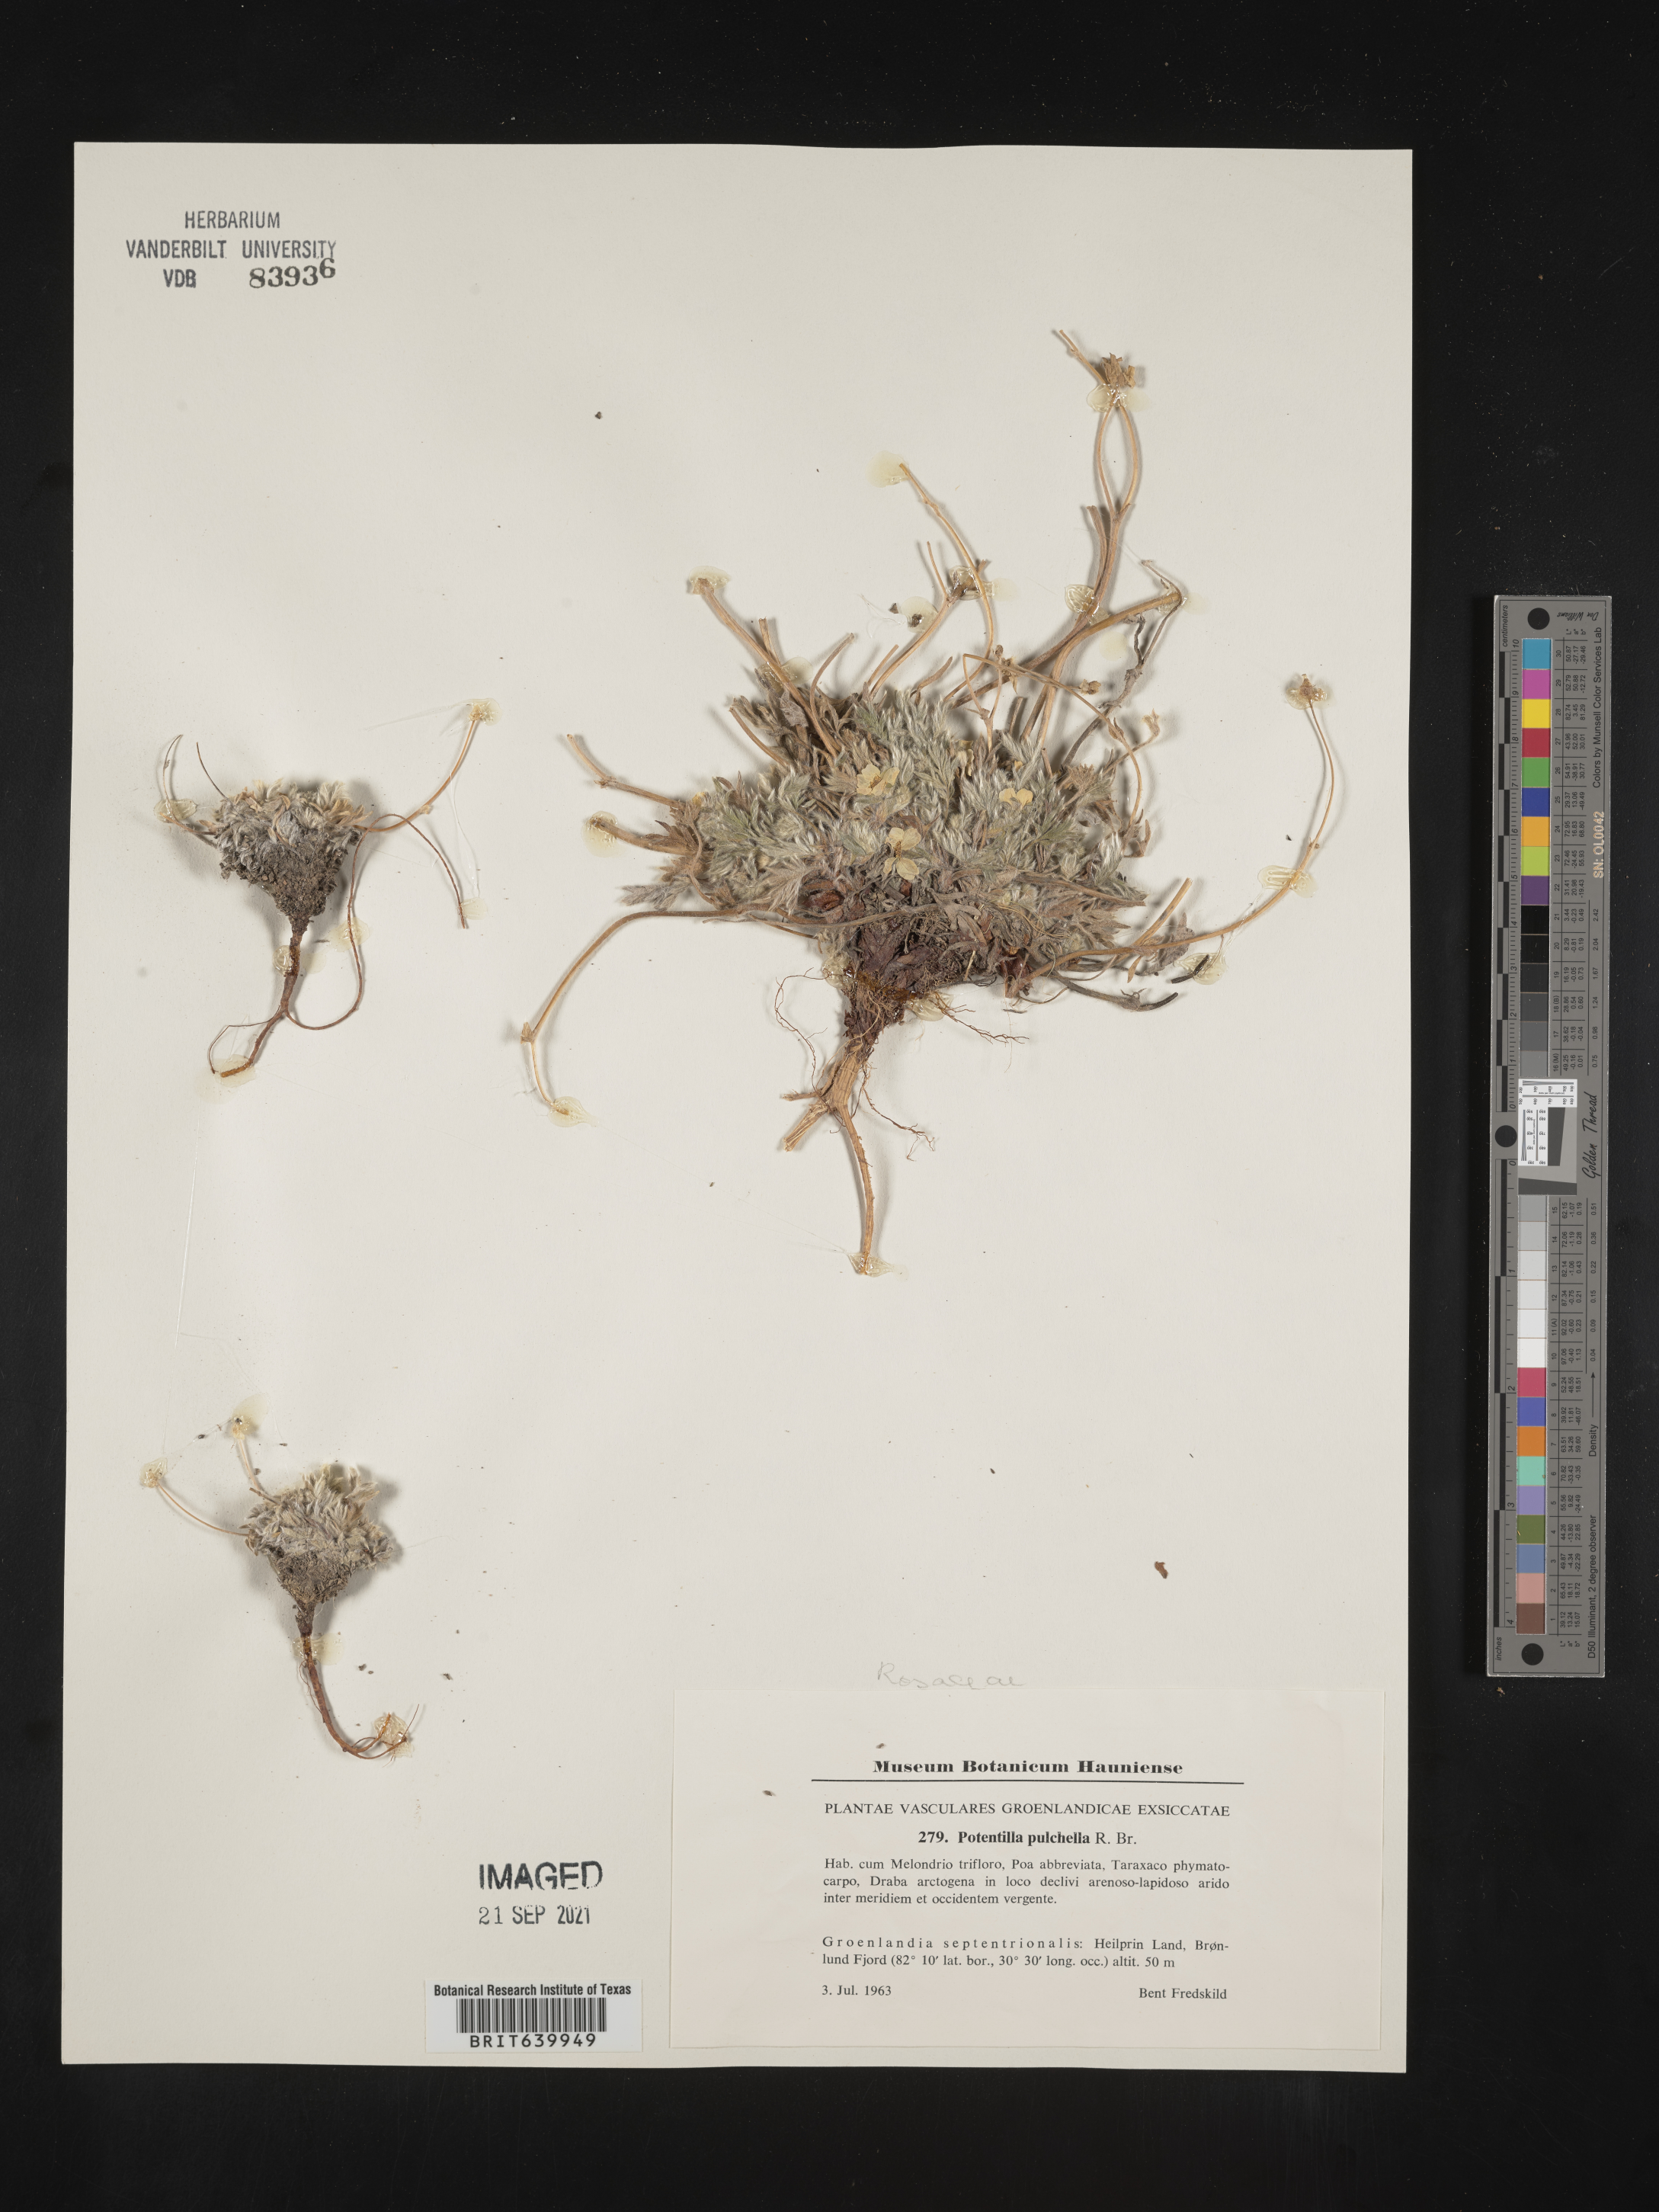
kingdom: Plantae
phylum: Tracheophyta
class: Magnoliopsida
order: Rosales
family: Rosaceae
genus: Potentilla
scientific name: Potentilla
